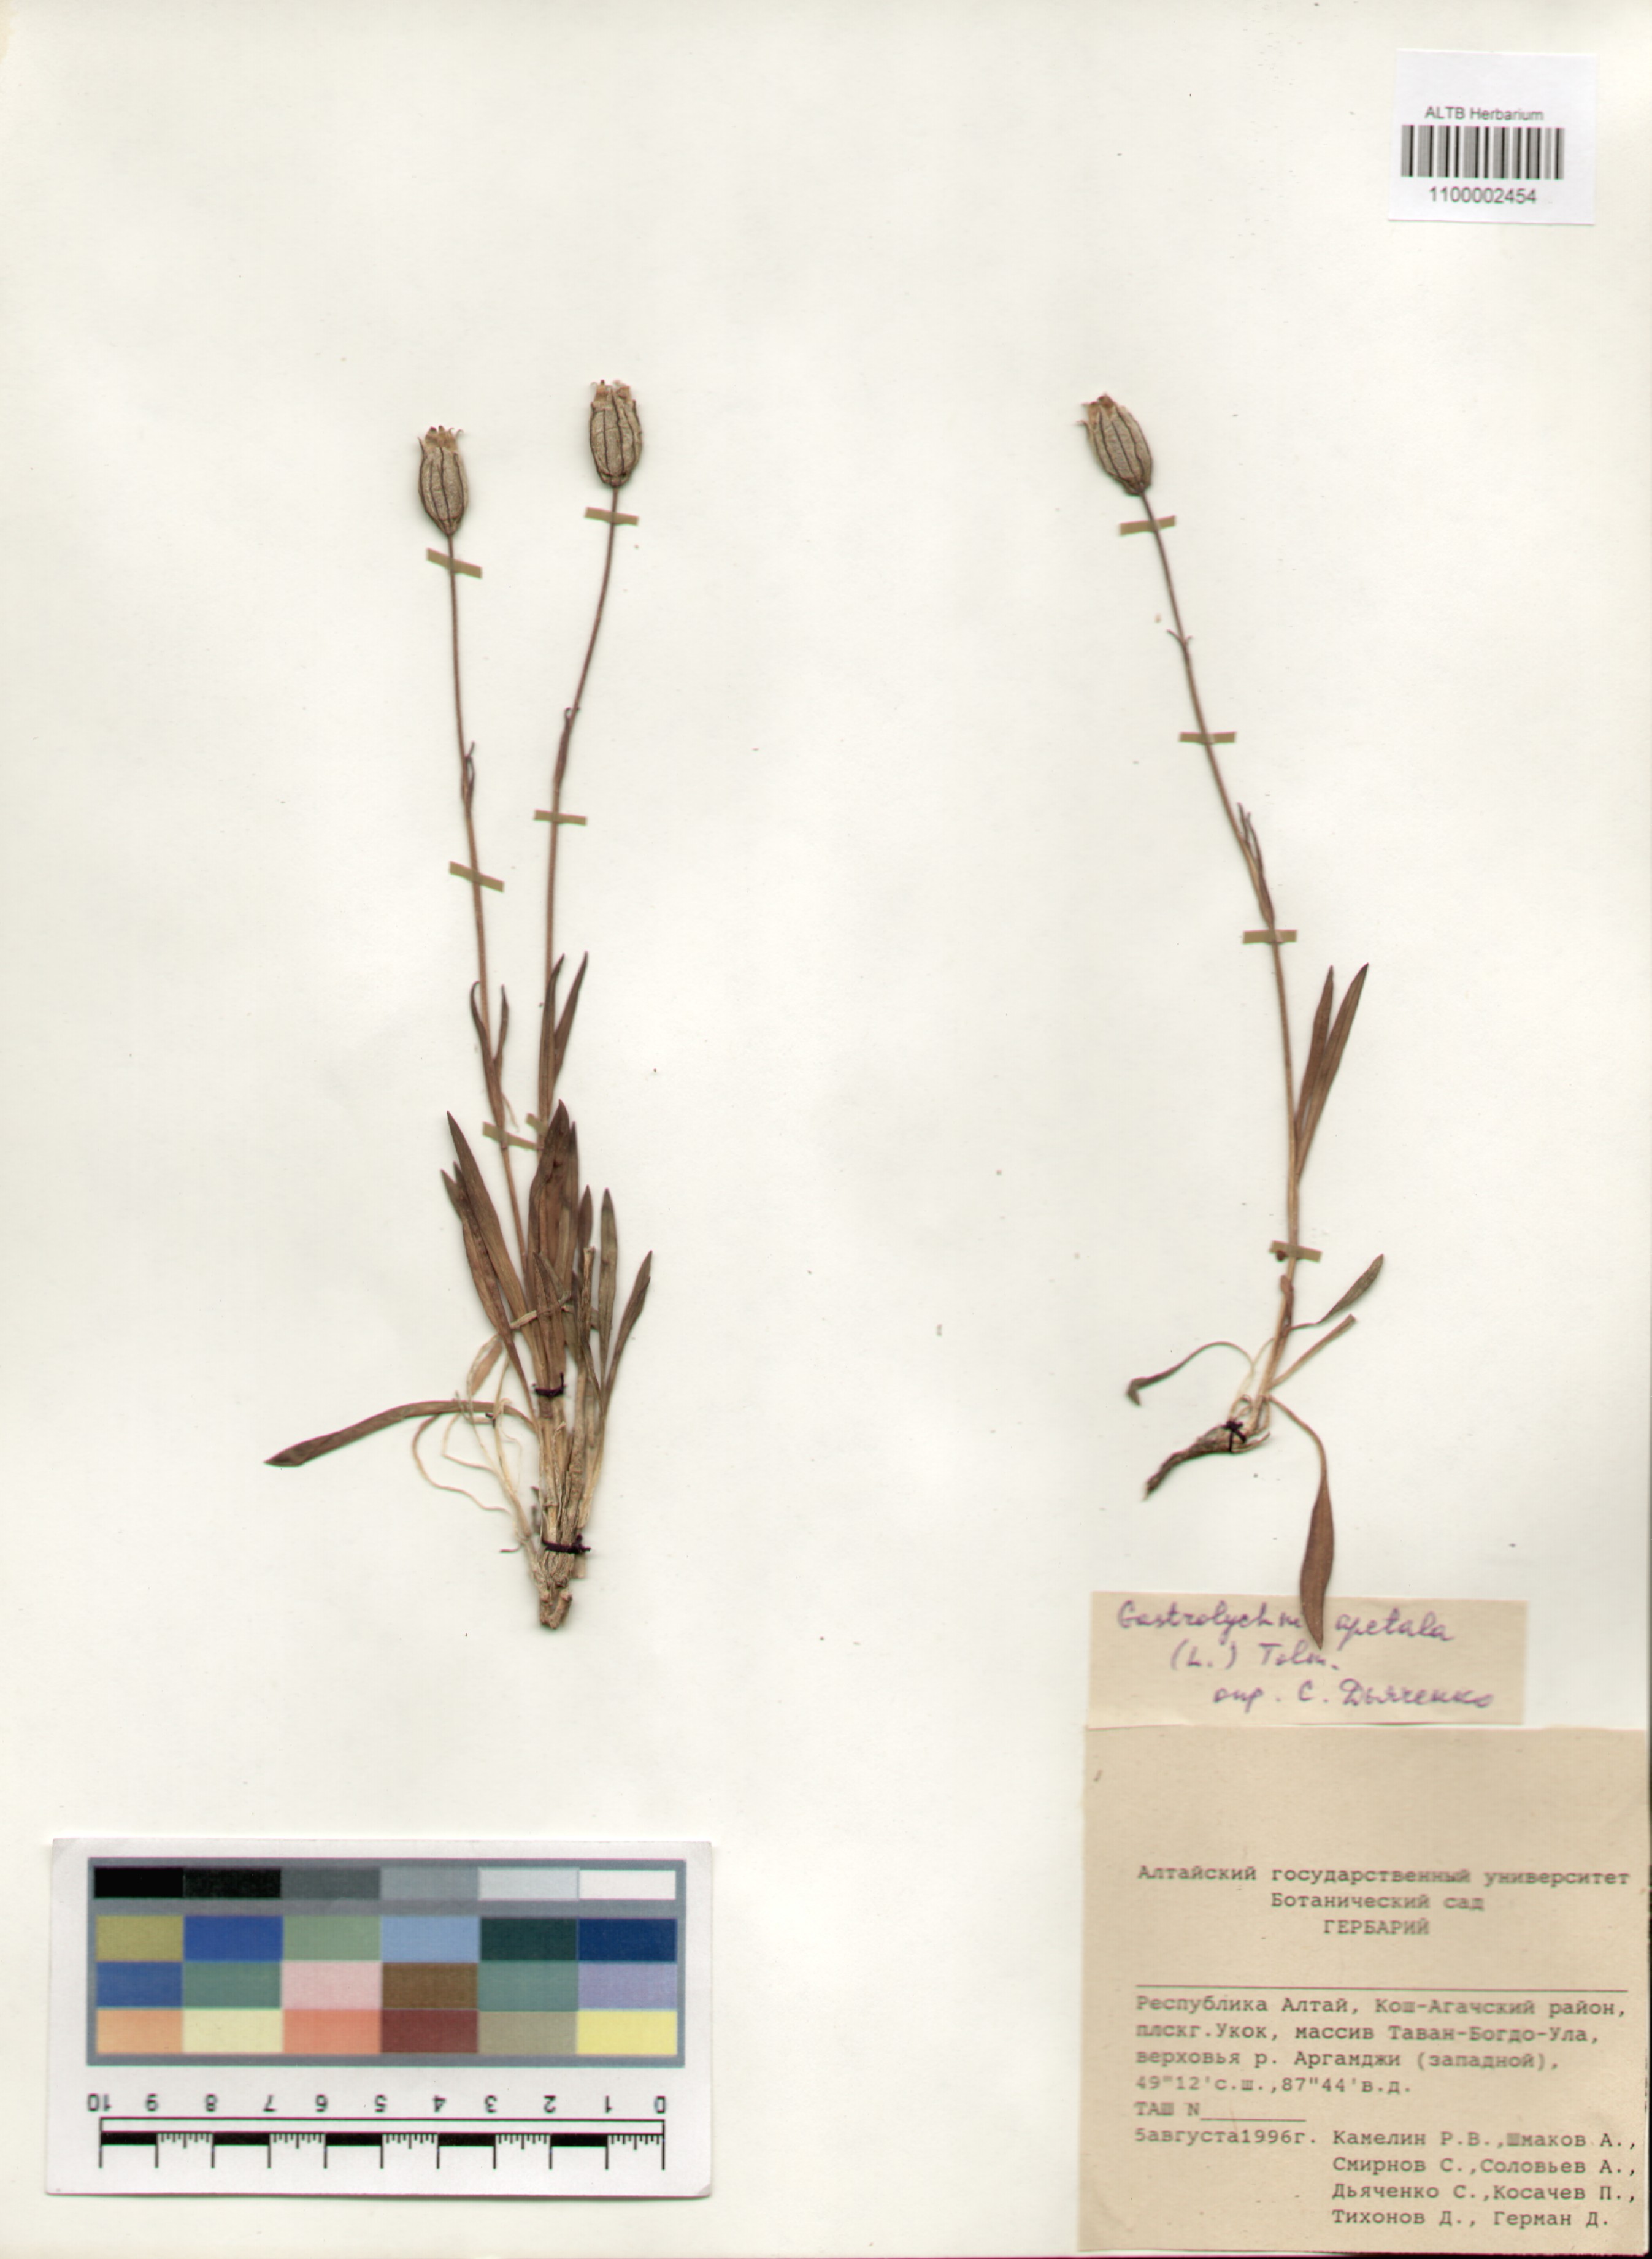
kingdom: Plantae
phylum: Tracheophyta
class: Magnoliopsida
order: Caryophyllales
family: Caryophyllaceae
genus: Silene
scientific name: Silene wahlbergella
